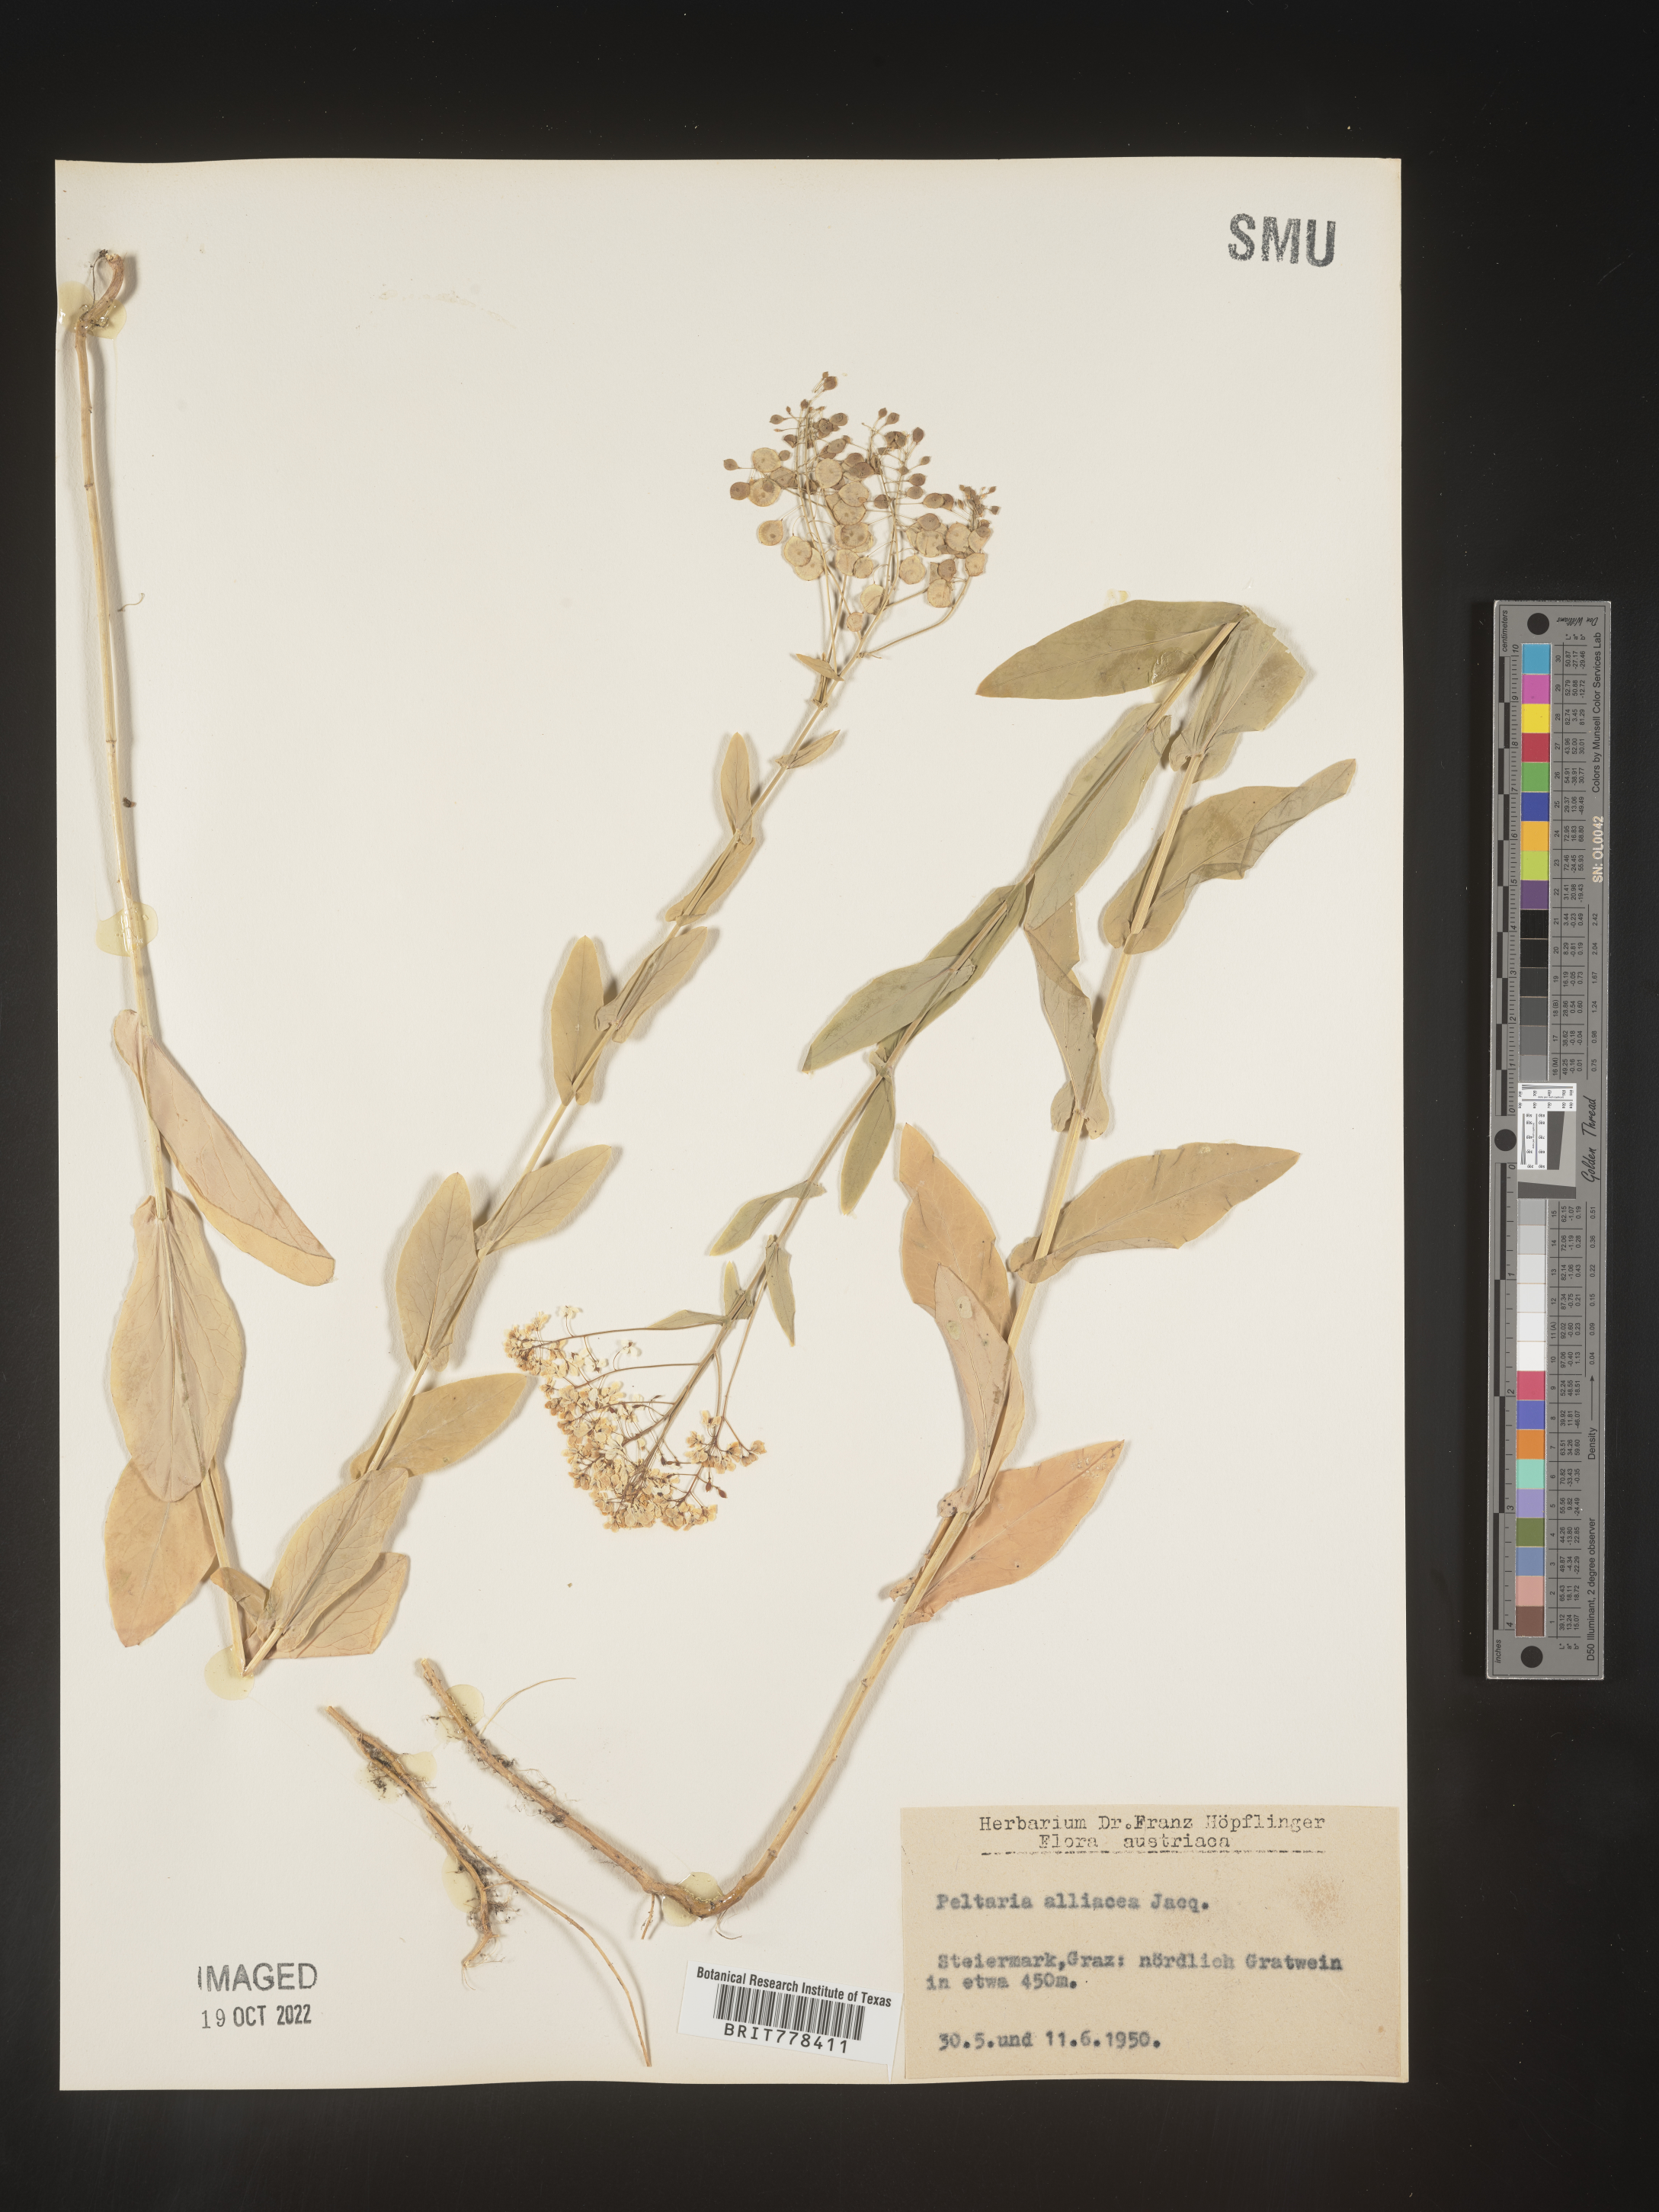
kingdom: Plantae
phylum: Tracheophyta
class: Magnoliopsida
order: Brassicales
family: Brassicaceae
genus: Peltaria
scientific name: Peltaria
